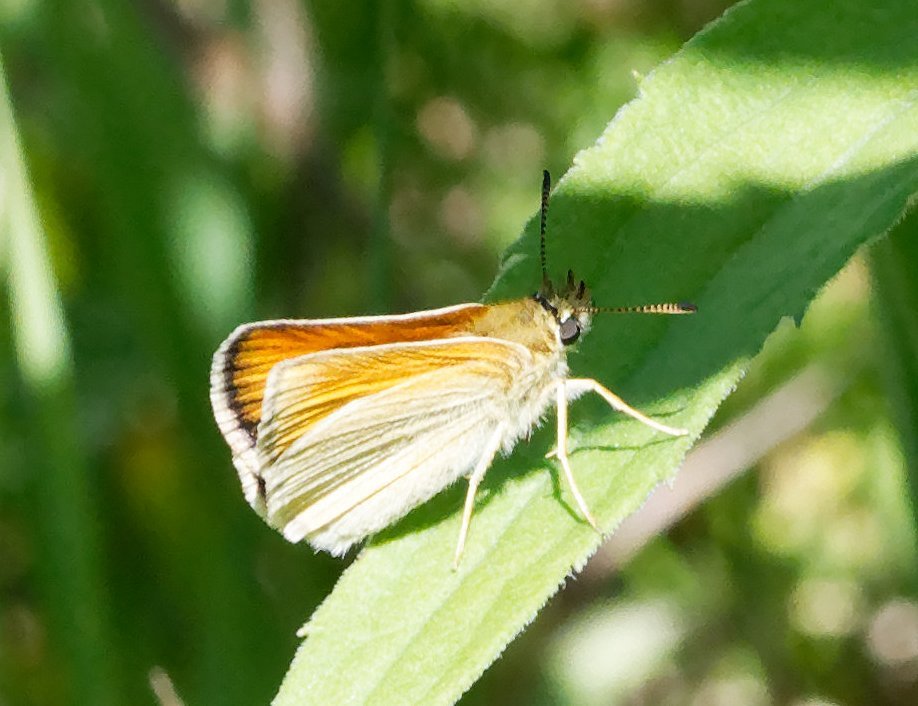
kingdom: Animalia
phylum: Arthropoda
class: Insecta
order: Lepidoptera
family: Hesperiidae
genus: Thymelicus
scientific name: Thymelicus lineola
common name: European Skipper
